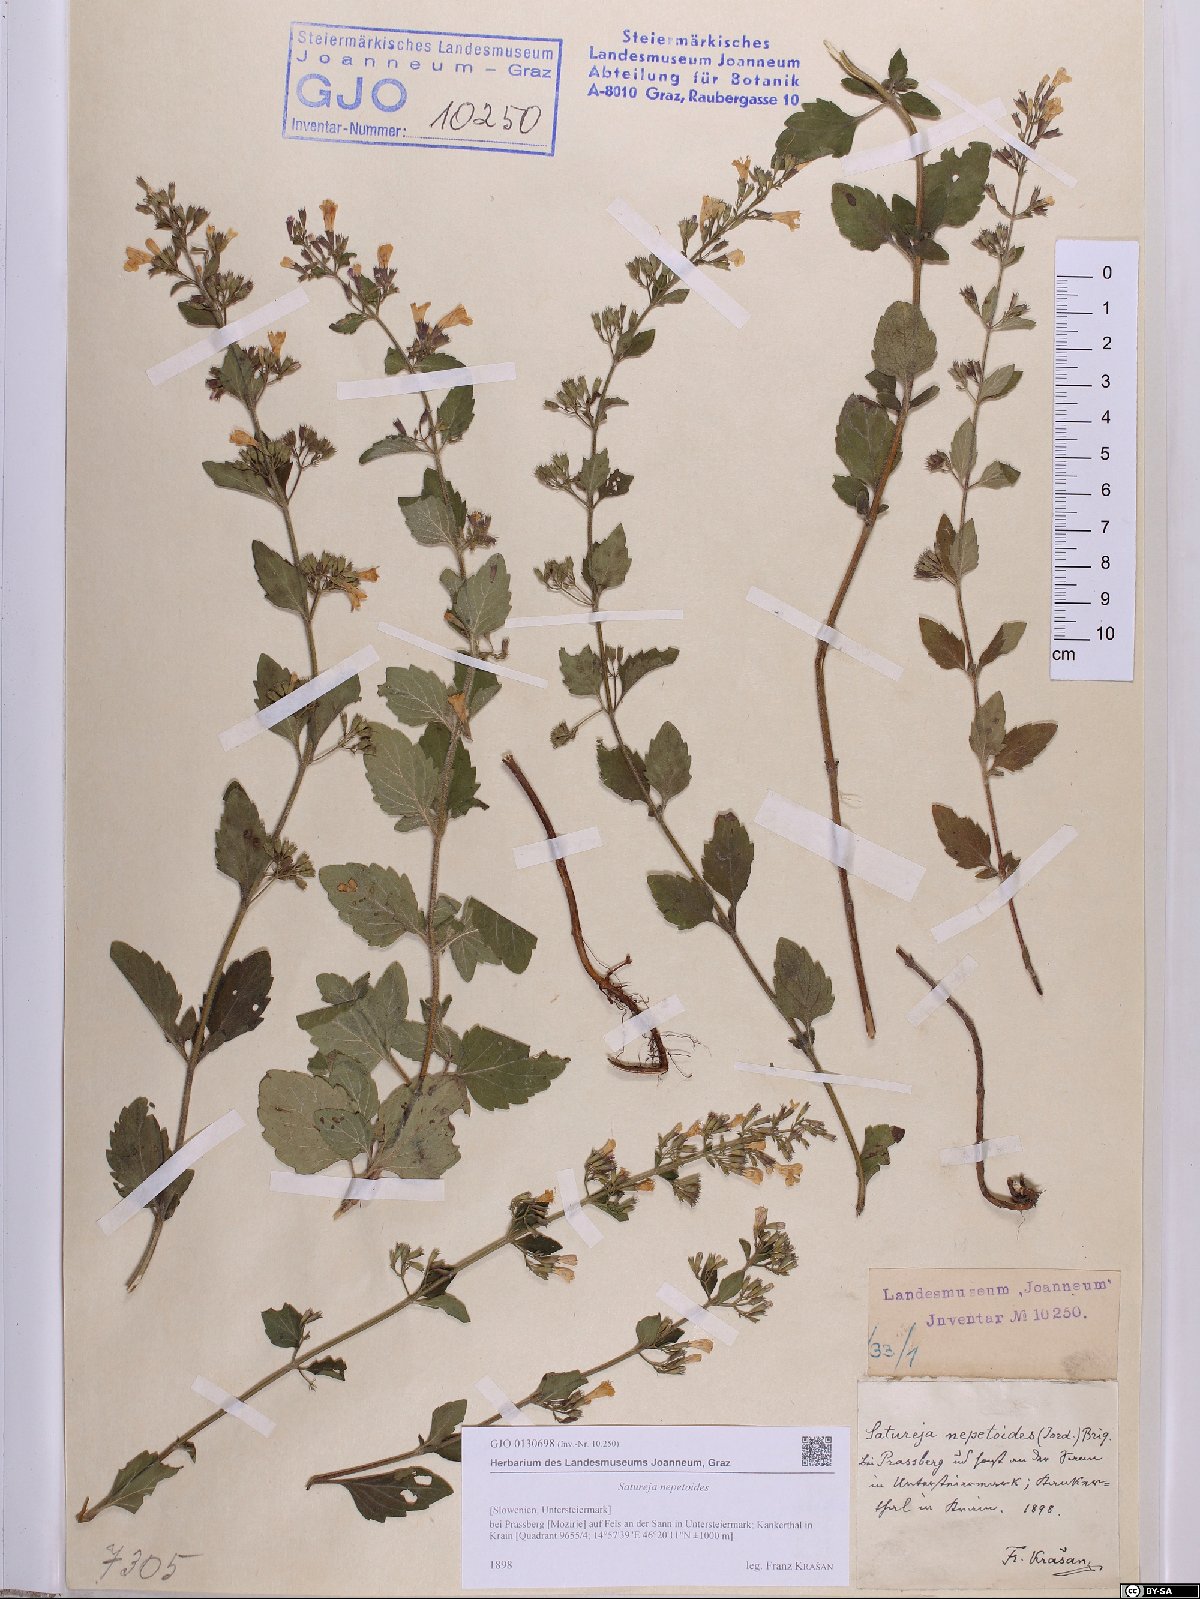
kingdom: Plantae
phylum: Tracheophyta
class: Magnoliopsida
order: Lamiales
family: Lamiaceae
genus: Clinopodium
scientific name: Clinopodium nepeta
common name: Lesser calamint
